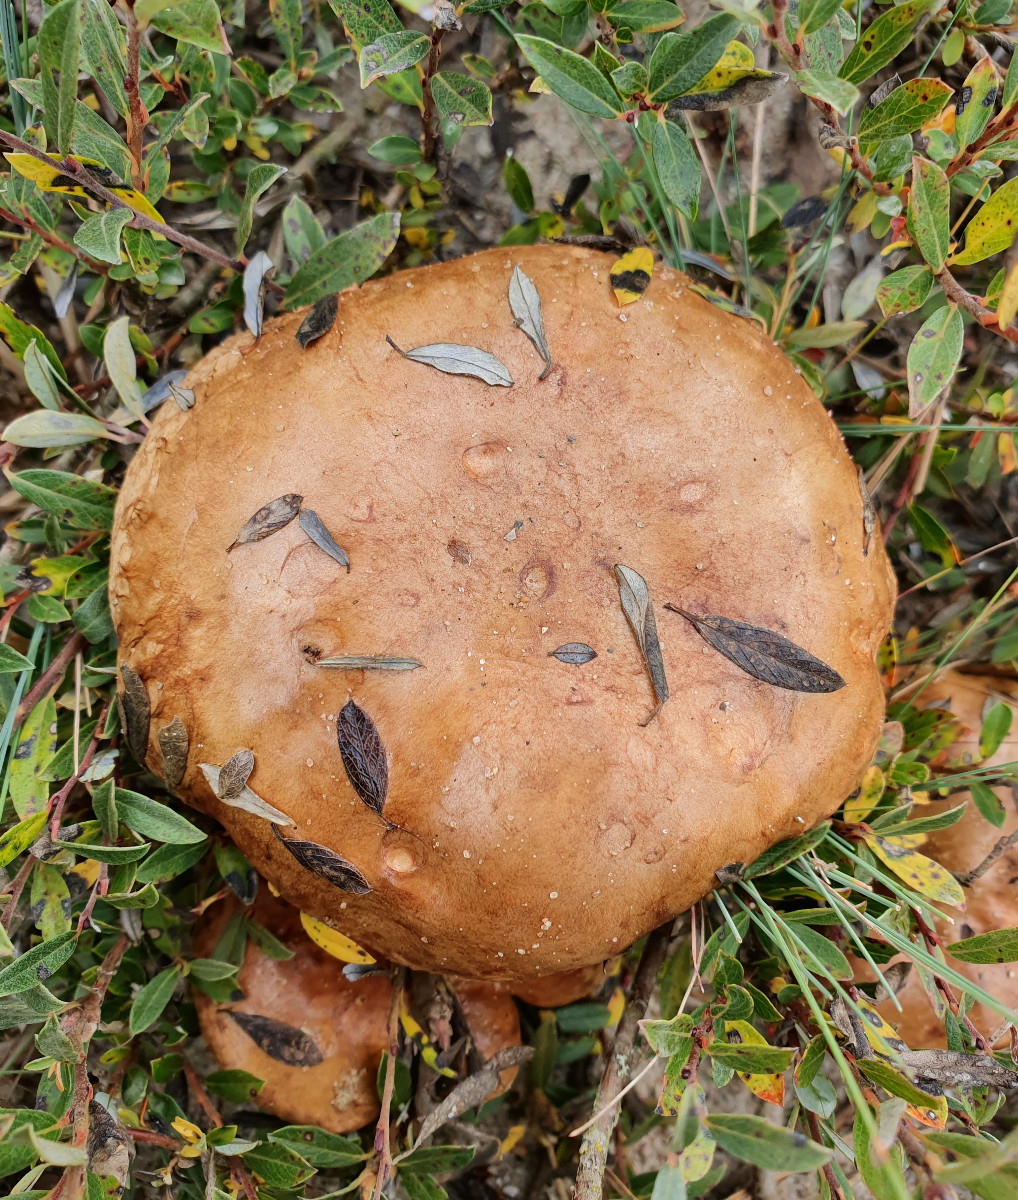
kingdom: Fungi
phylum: Basidiomycota
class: Agaricomycetes
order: Boletales
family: Paxillaceae
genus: Paxillus
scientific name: Paxillus ammoniavirescens
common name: olivensporet netbladhat
